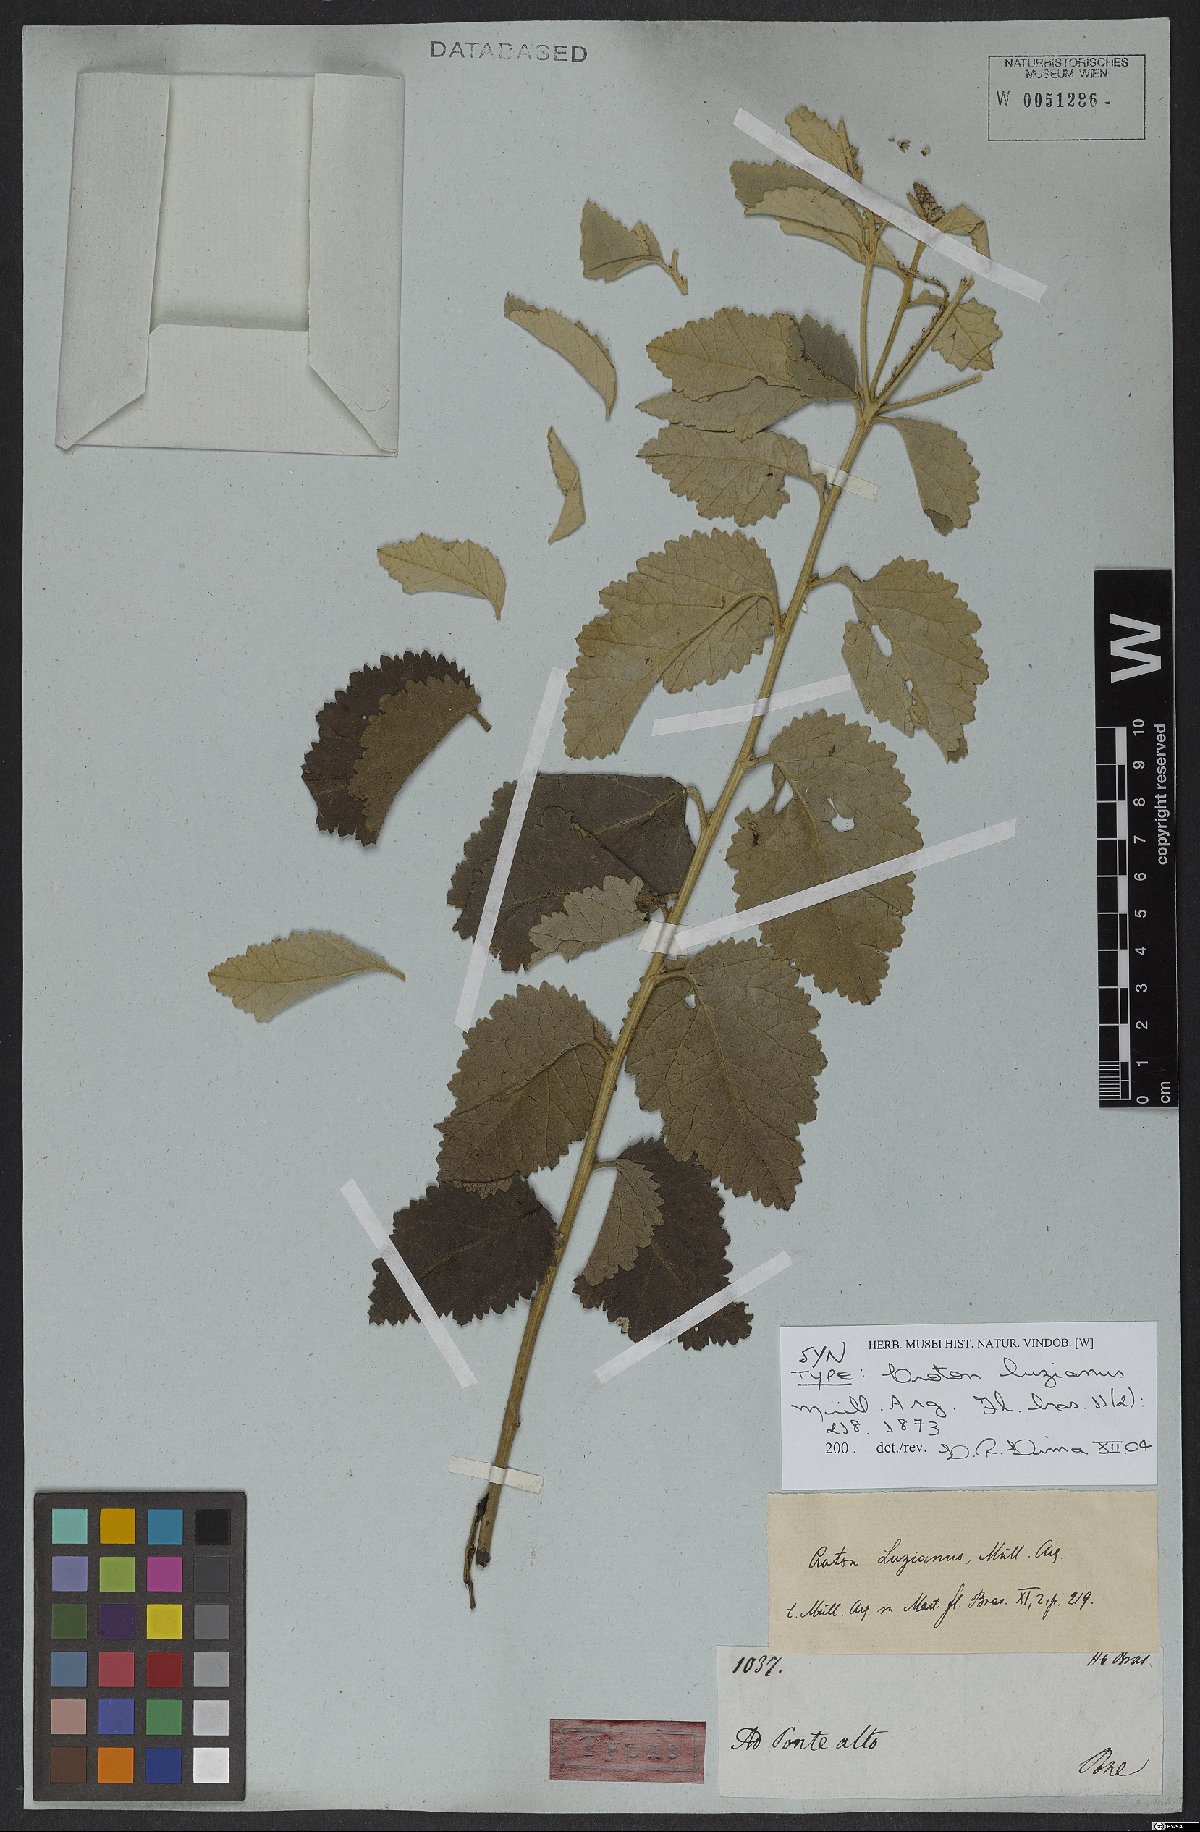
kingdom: Plantae
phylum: Tracheophyta
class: Magnoliopsida
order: Malpighiales
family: Euphorbiaceae
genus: Croton
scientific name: Croton goyazensis
